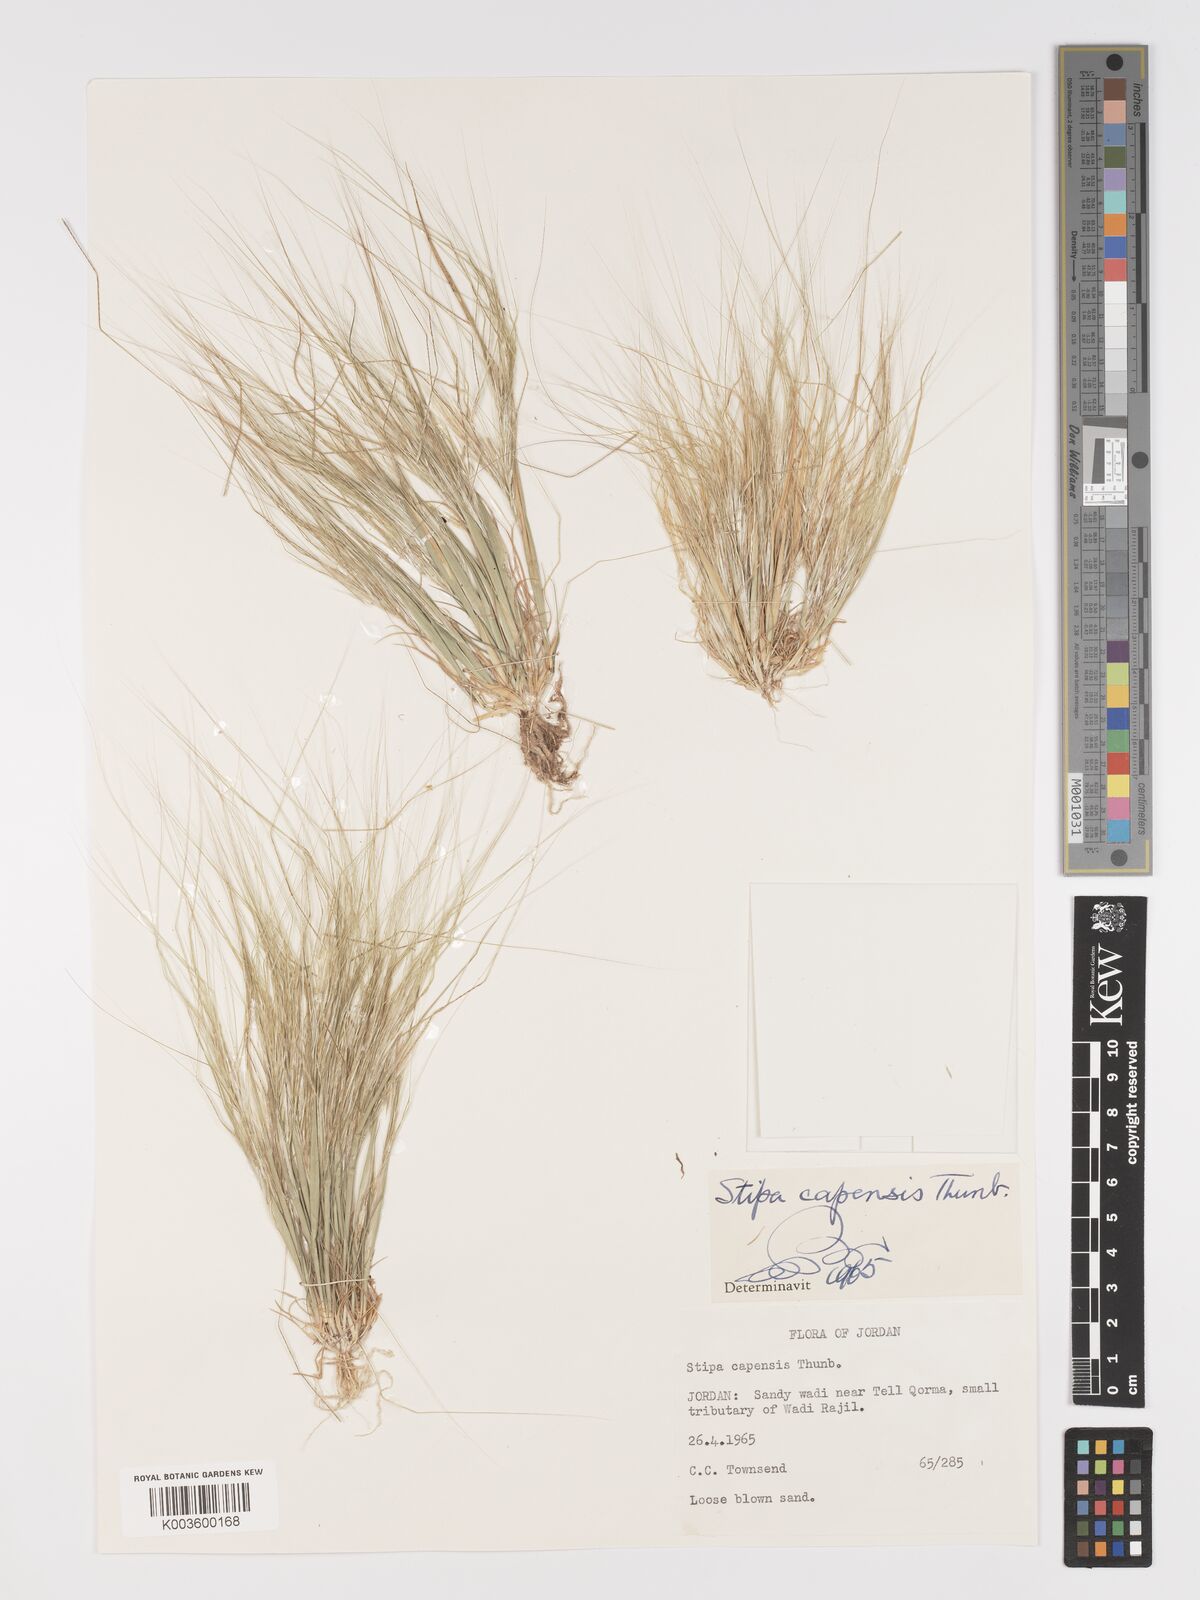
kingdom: Plantae
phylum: Tracheophyta
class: Liliopsida
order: Poales
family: Poaceae
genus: Stipellula
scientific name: Stipellula capensis
